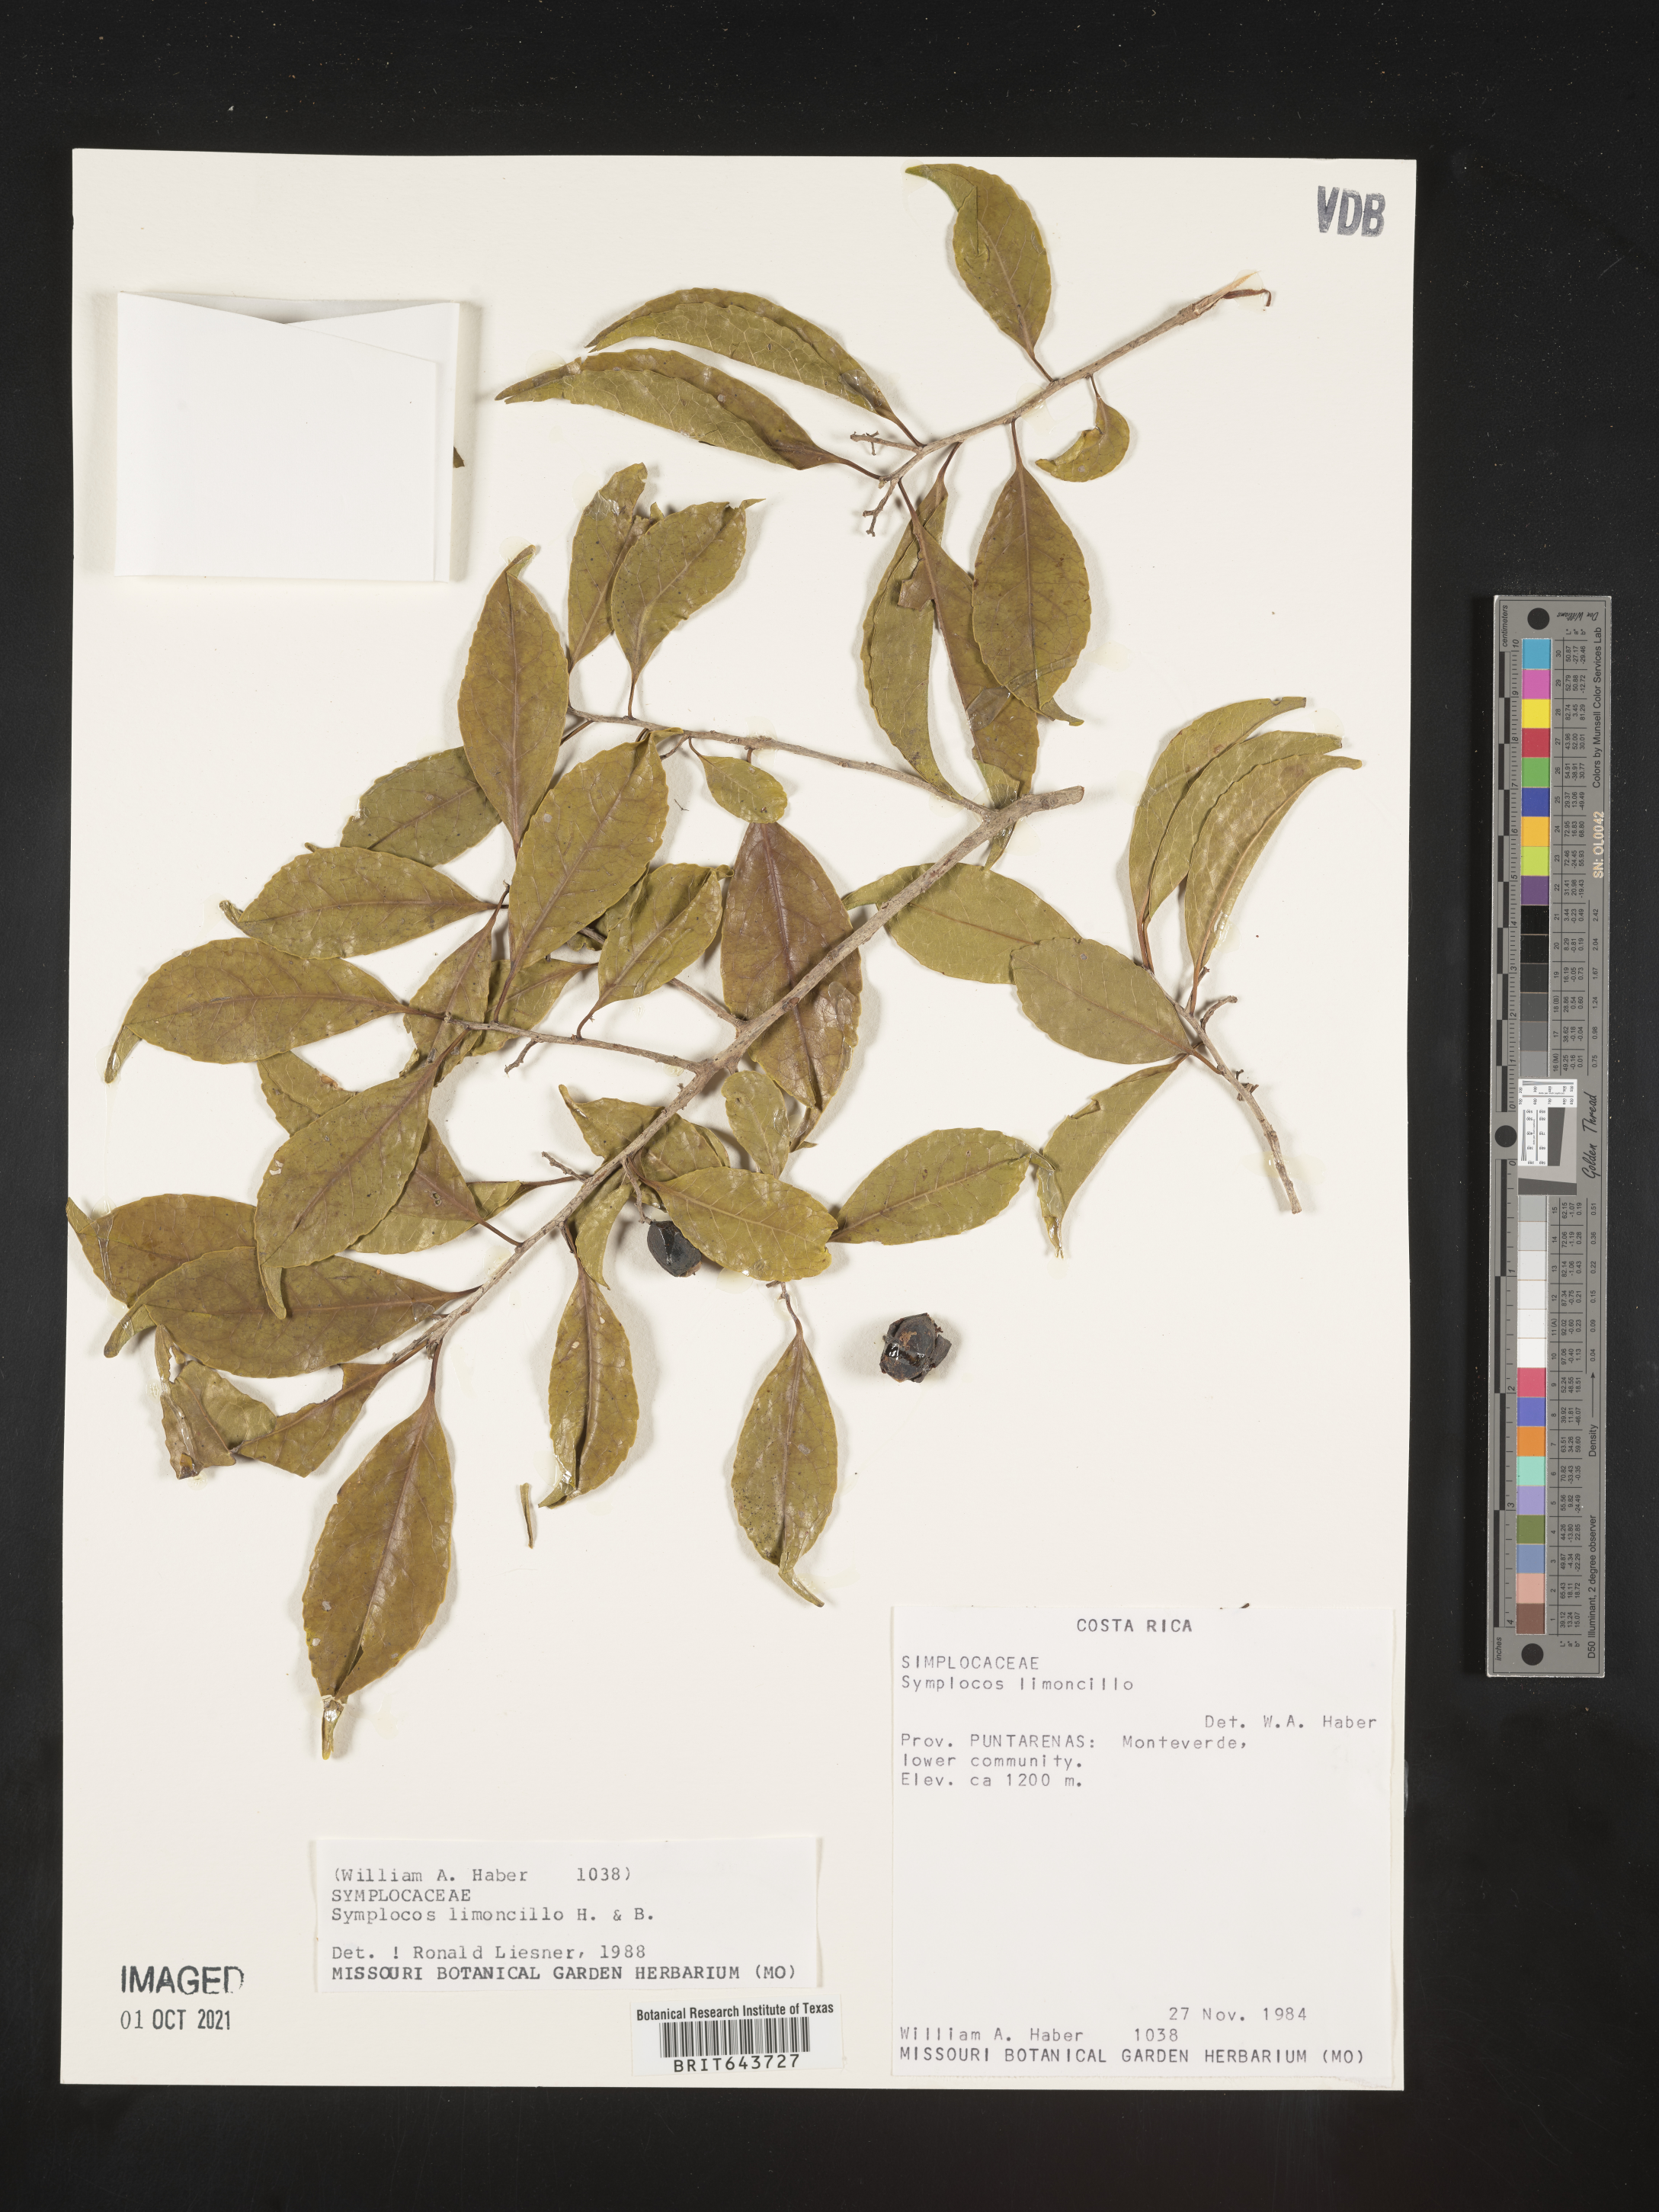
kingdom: Plantae
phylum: Tracheophyta
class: Magnoliopsida
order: Ericales
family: Symplocaceae
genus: Symplocos
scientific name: Symplocos
